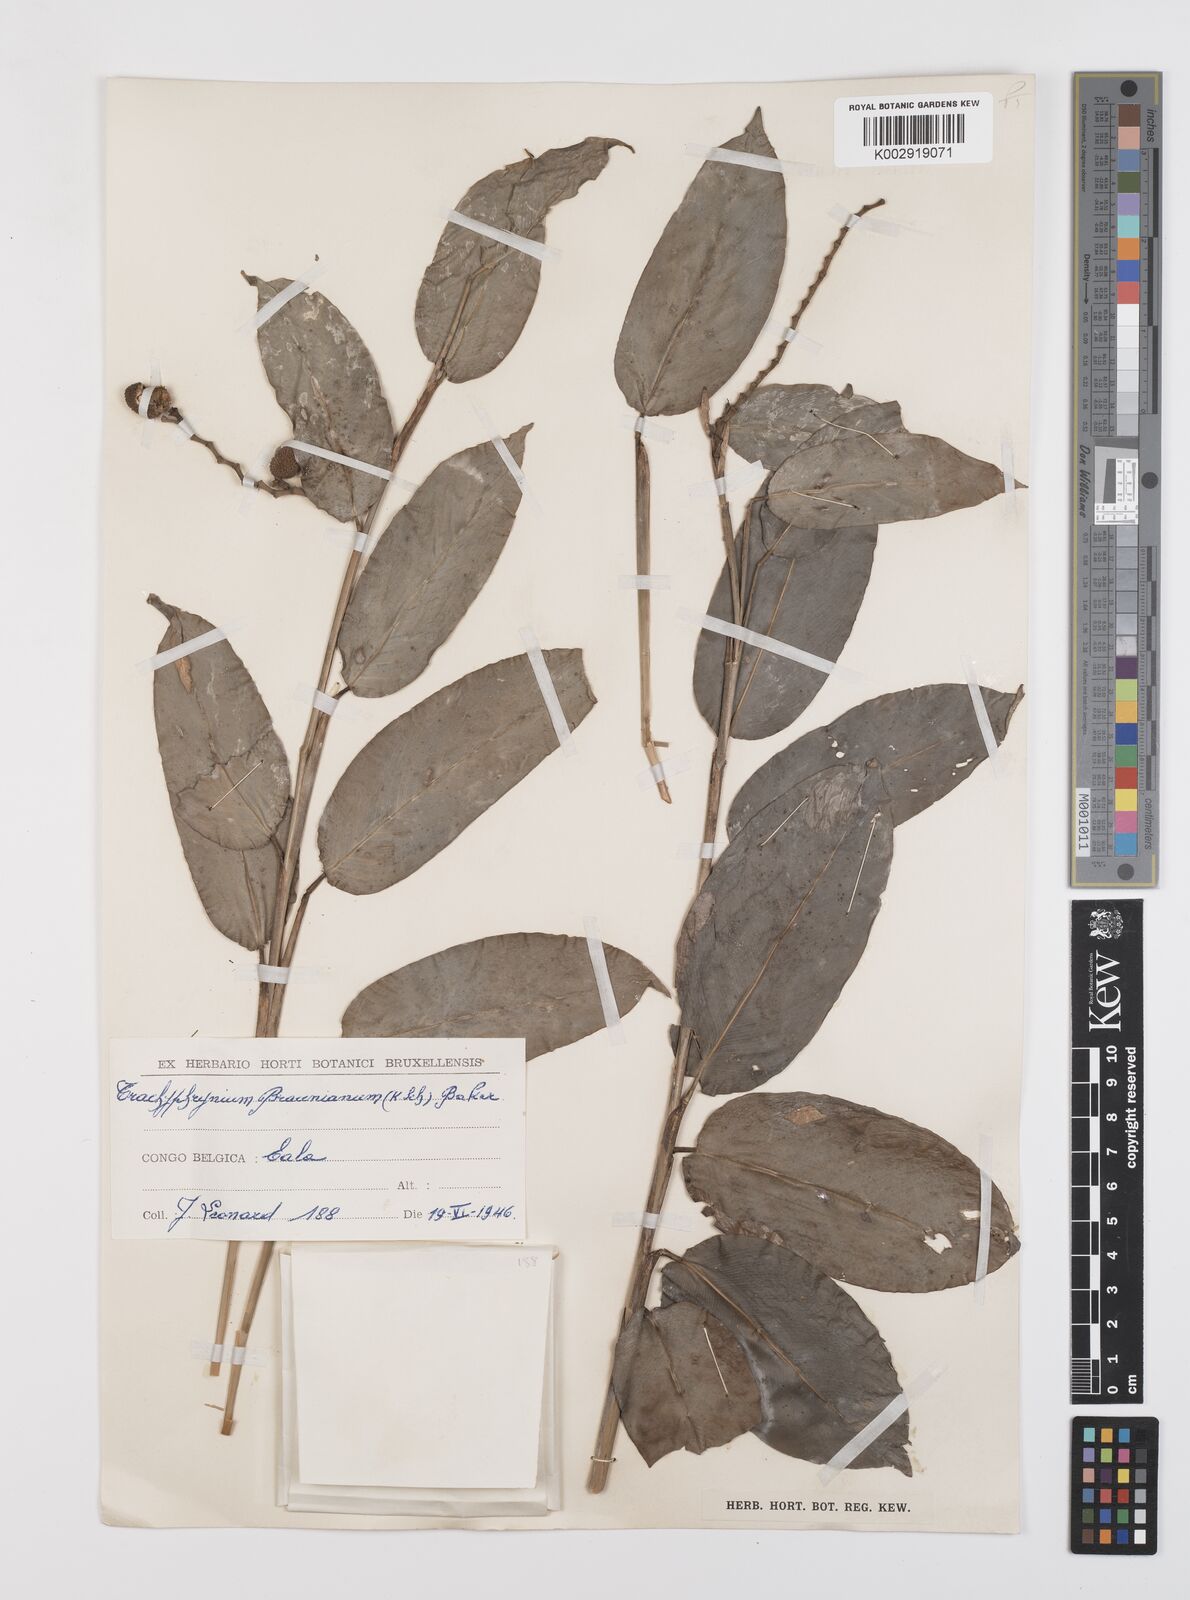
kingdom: Plantae
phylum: Tracheophyta
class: Liliopsida
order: Zingiberales
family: Marantaceae
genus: Trachyphrynium
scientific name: Trachyphrynium braunianum
